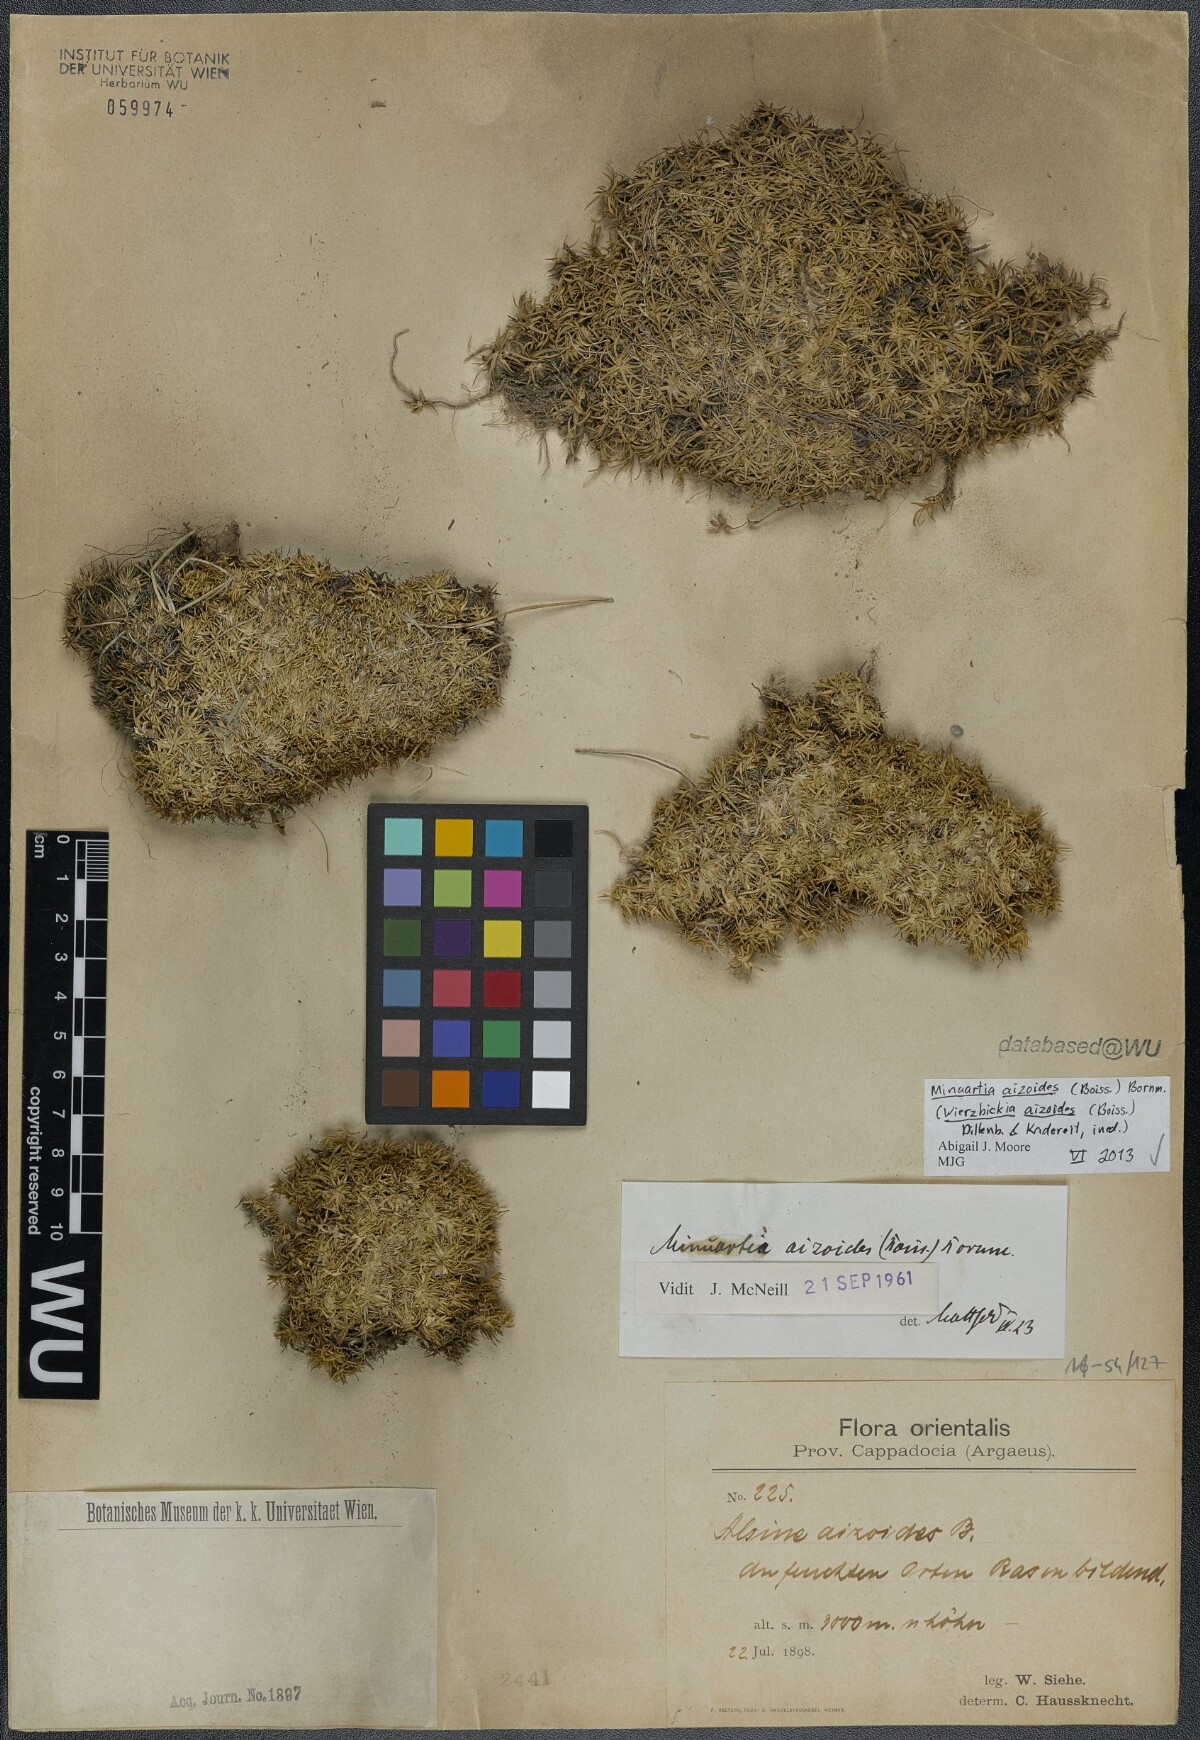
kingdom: Plantae
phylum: Tracheophyta
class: Magnoliopsida
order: Caryophyllales
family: Caryophyllaceae
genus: Pseudocherleria
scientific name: Pseudocherleria aizoides
